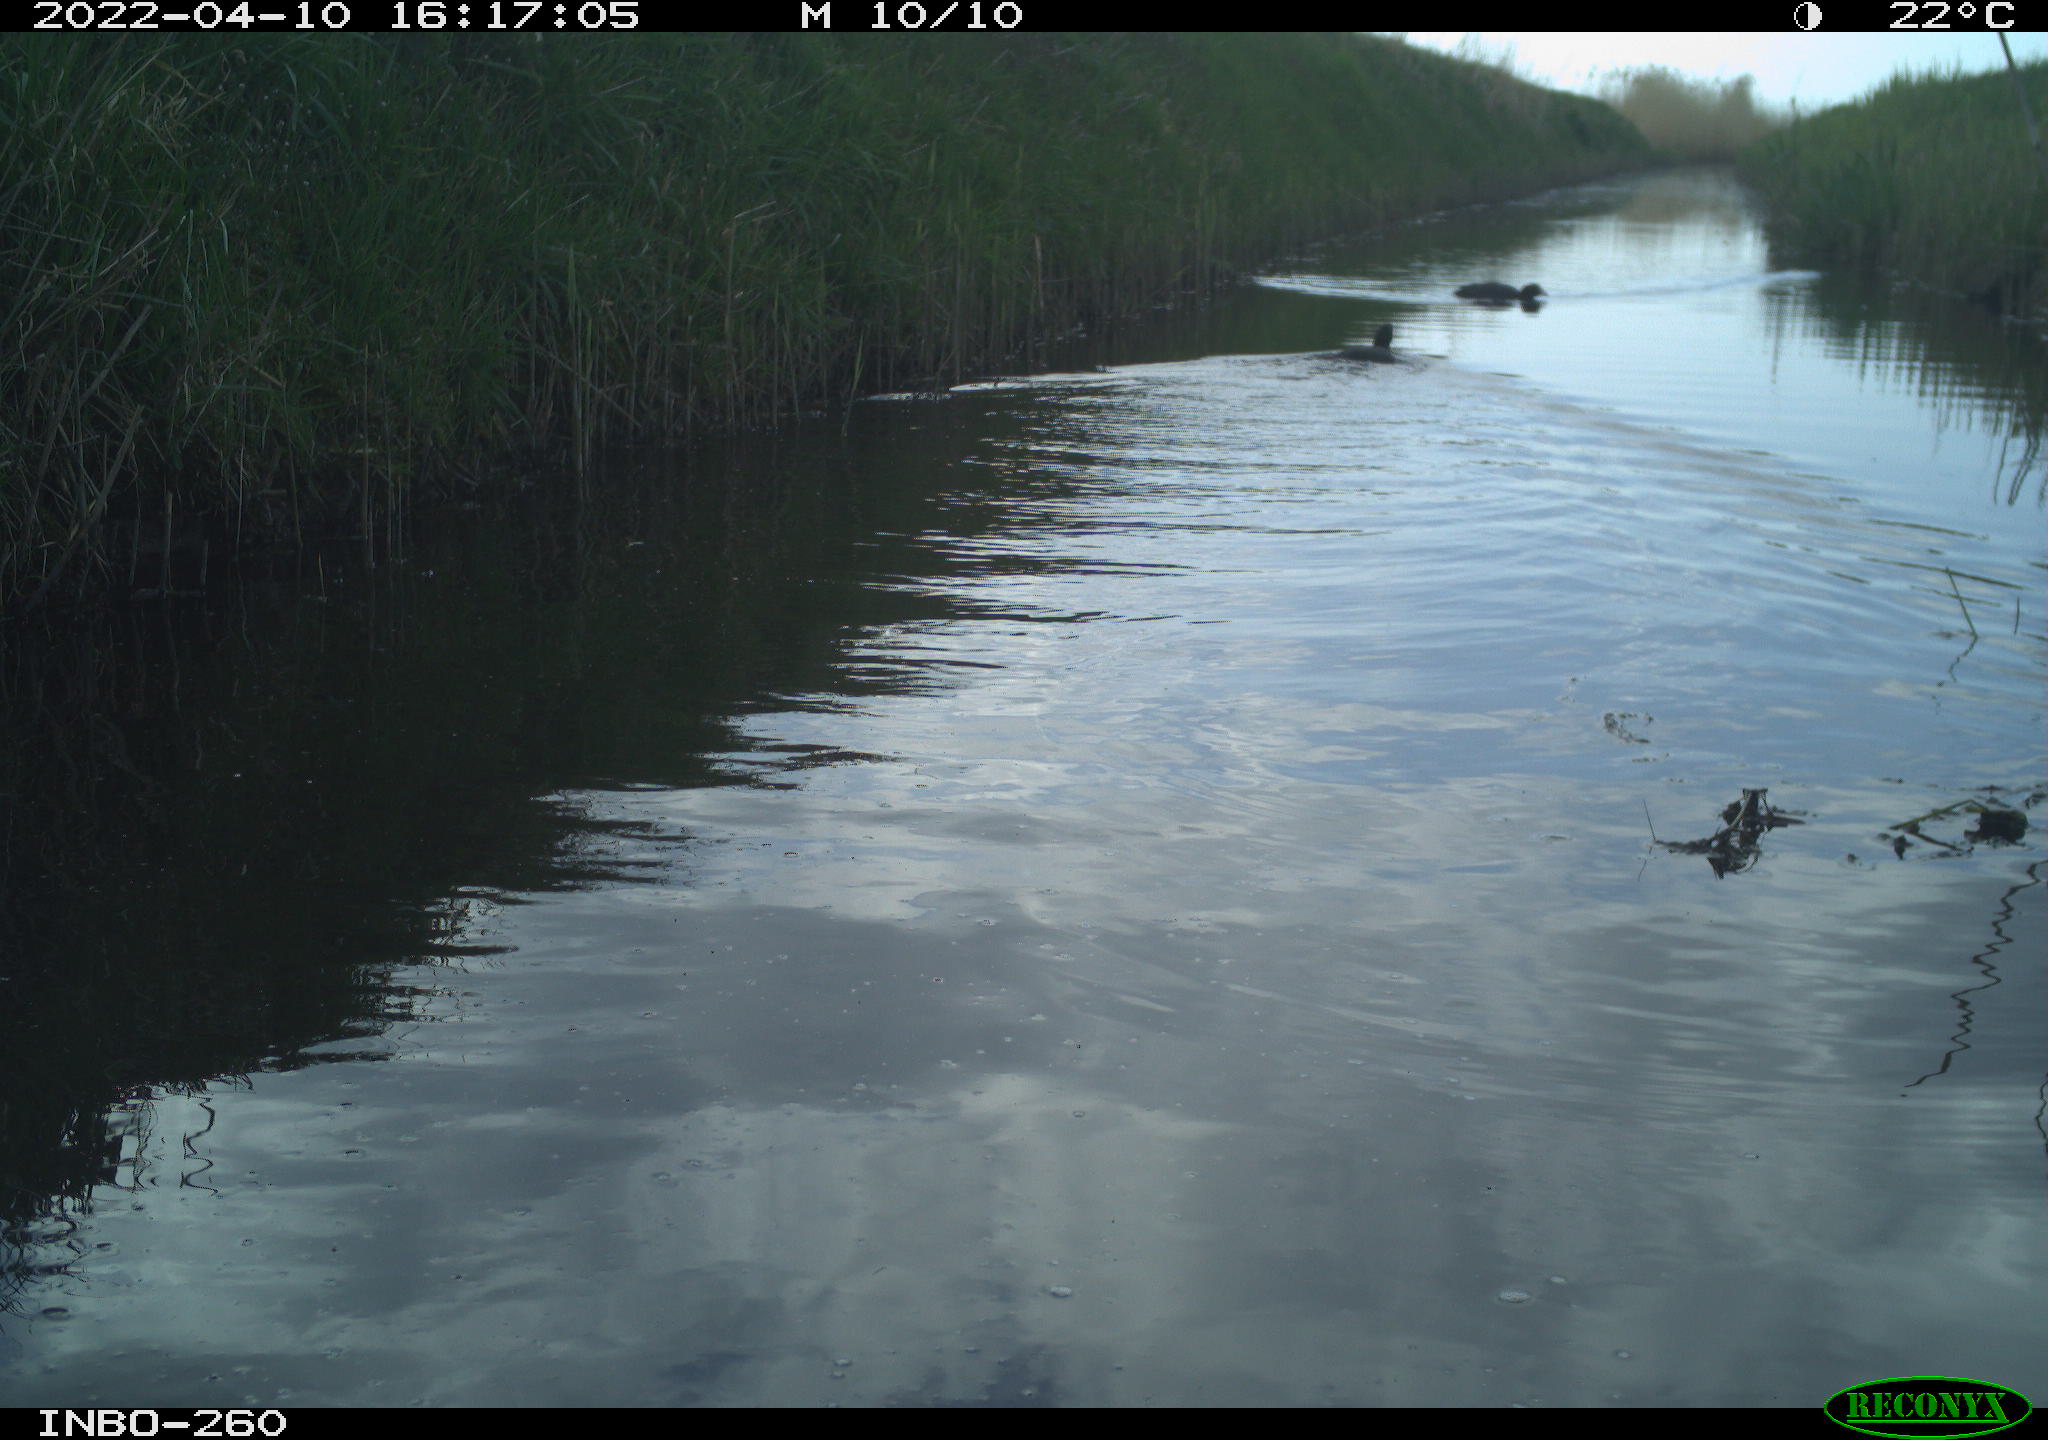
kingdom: Animalia
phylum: Chordata
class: Aves
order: Gruiformes
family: Rallidae
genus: Fulica
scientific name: Fulica atra
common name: Eurasian coot
